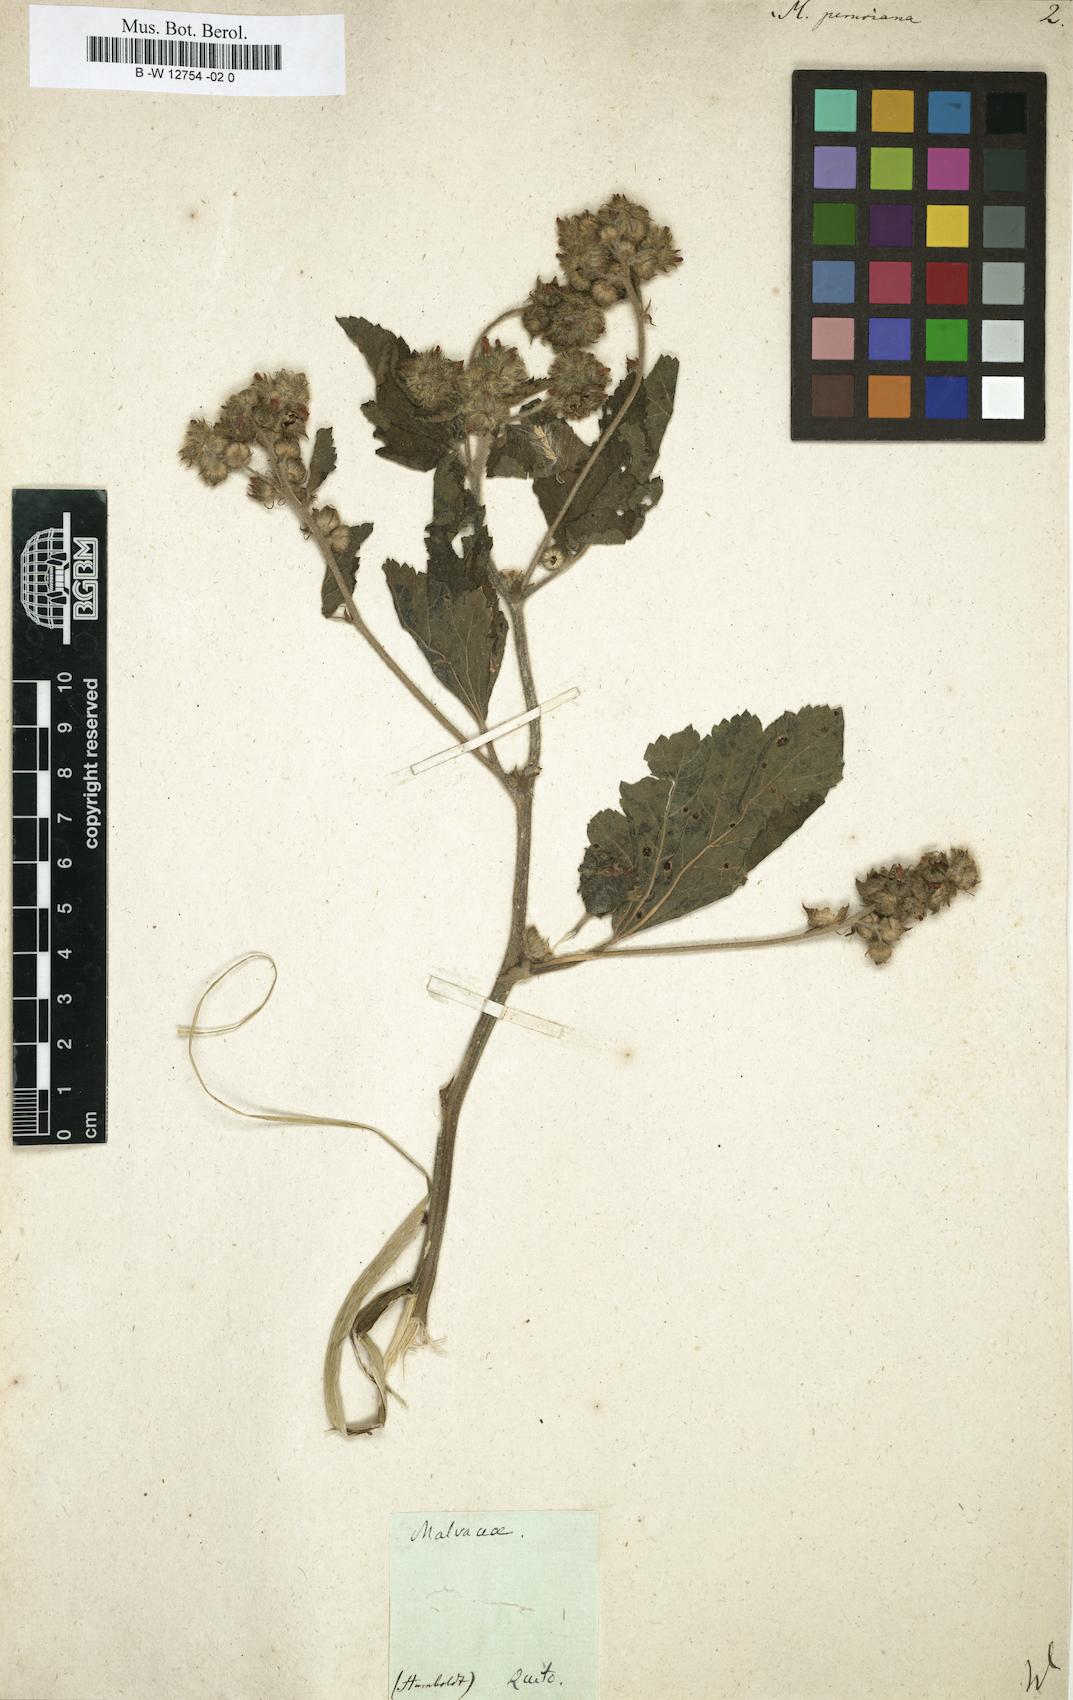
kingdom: Plantae
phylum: Tracheophyta
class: Magnoliopsida
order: Malvales
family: Malvaceae
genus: Fuertesimalva
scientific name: Fuertesimalva peruviana
